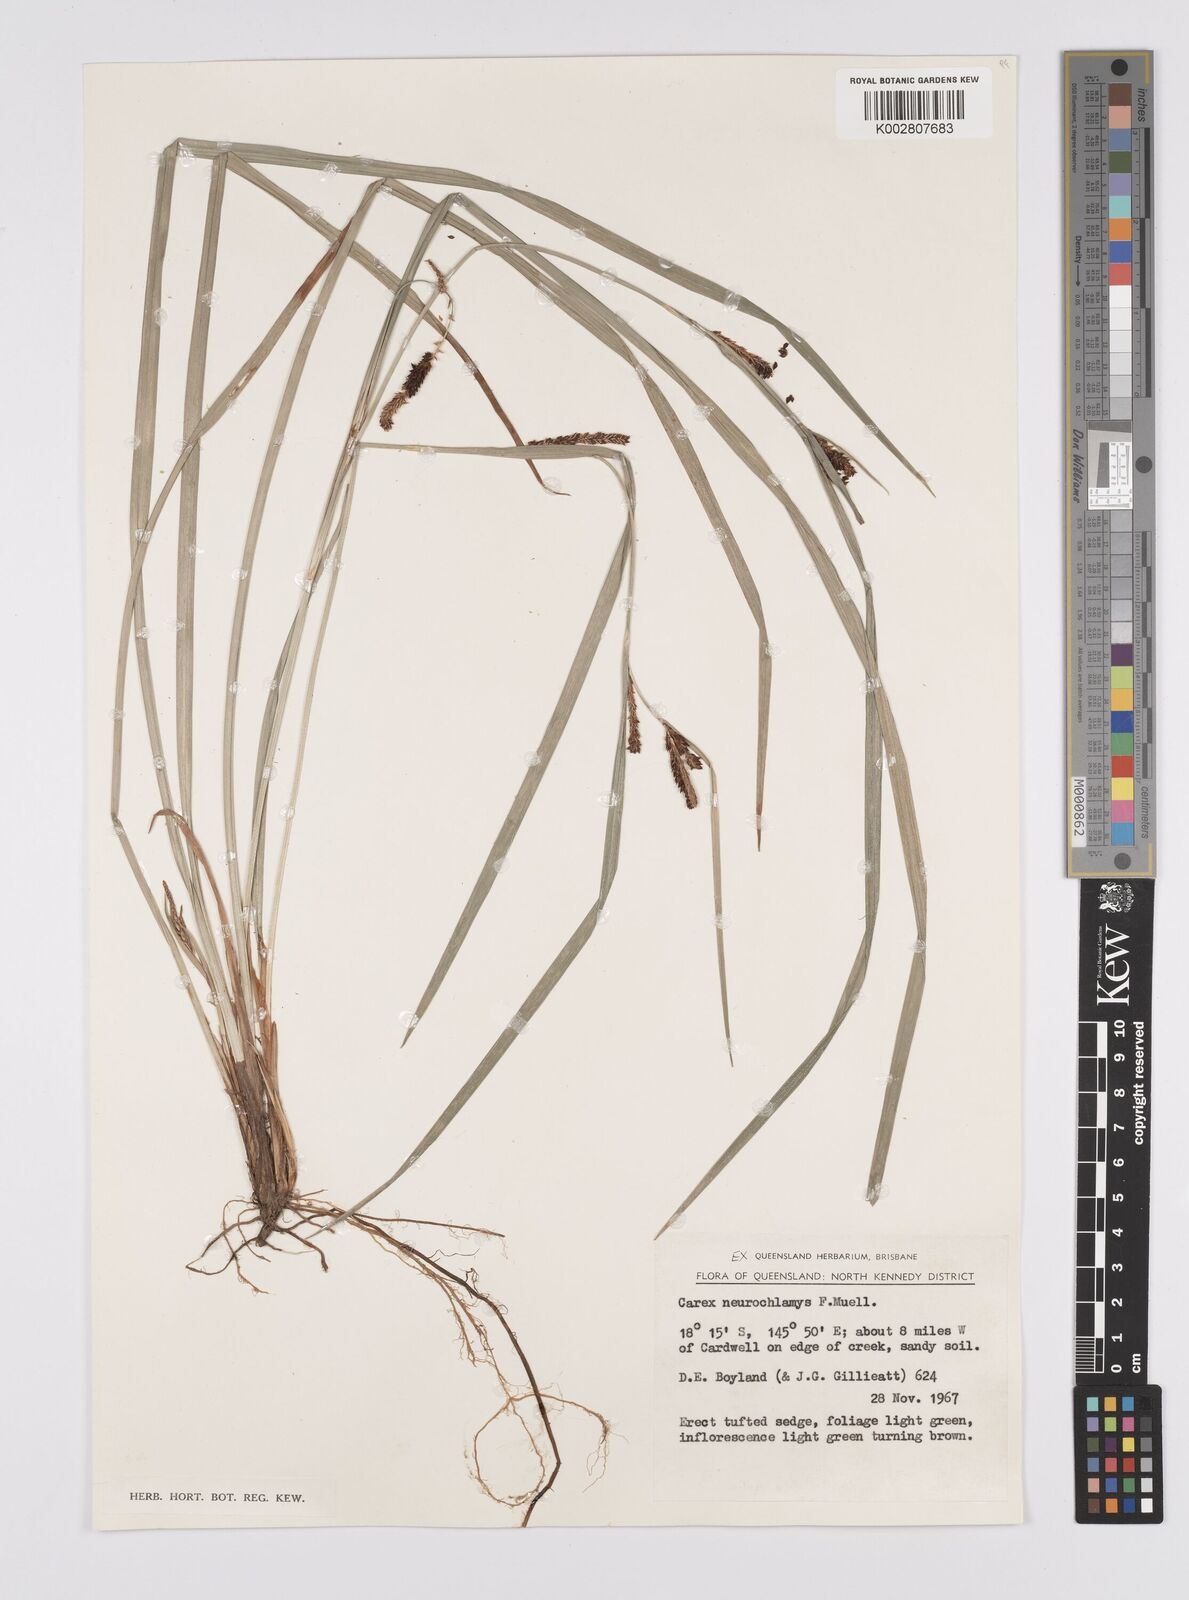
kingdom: Plantae
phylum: Tracheophyta
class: Liliopsida
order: Poales
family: Cyperaceae
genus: Carex
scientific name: Carex maculata
